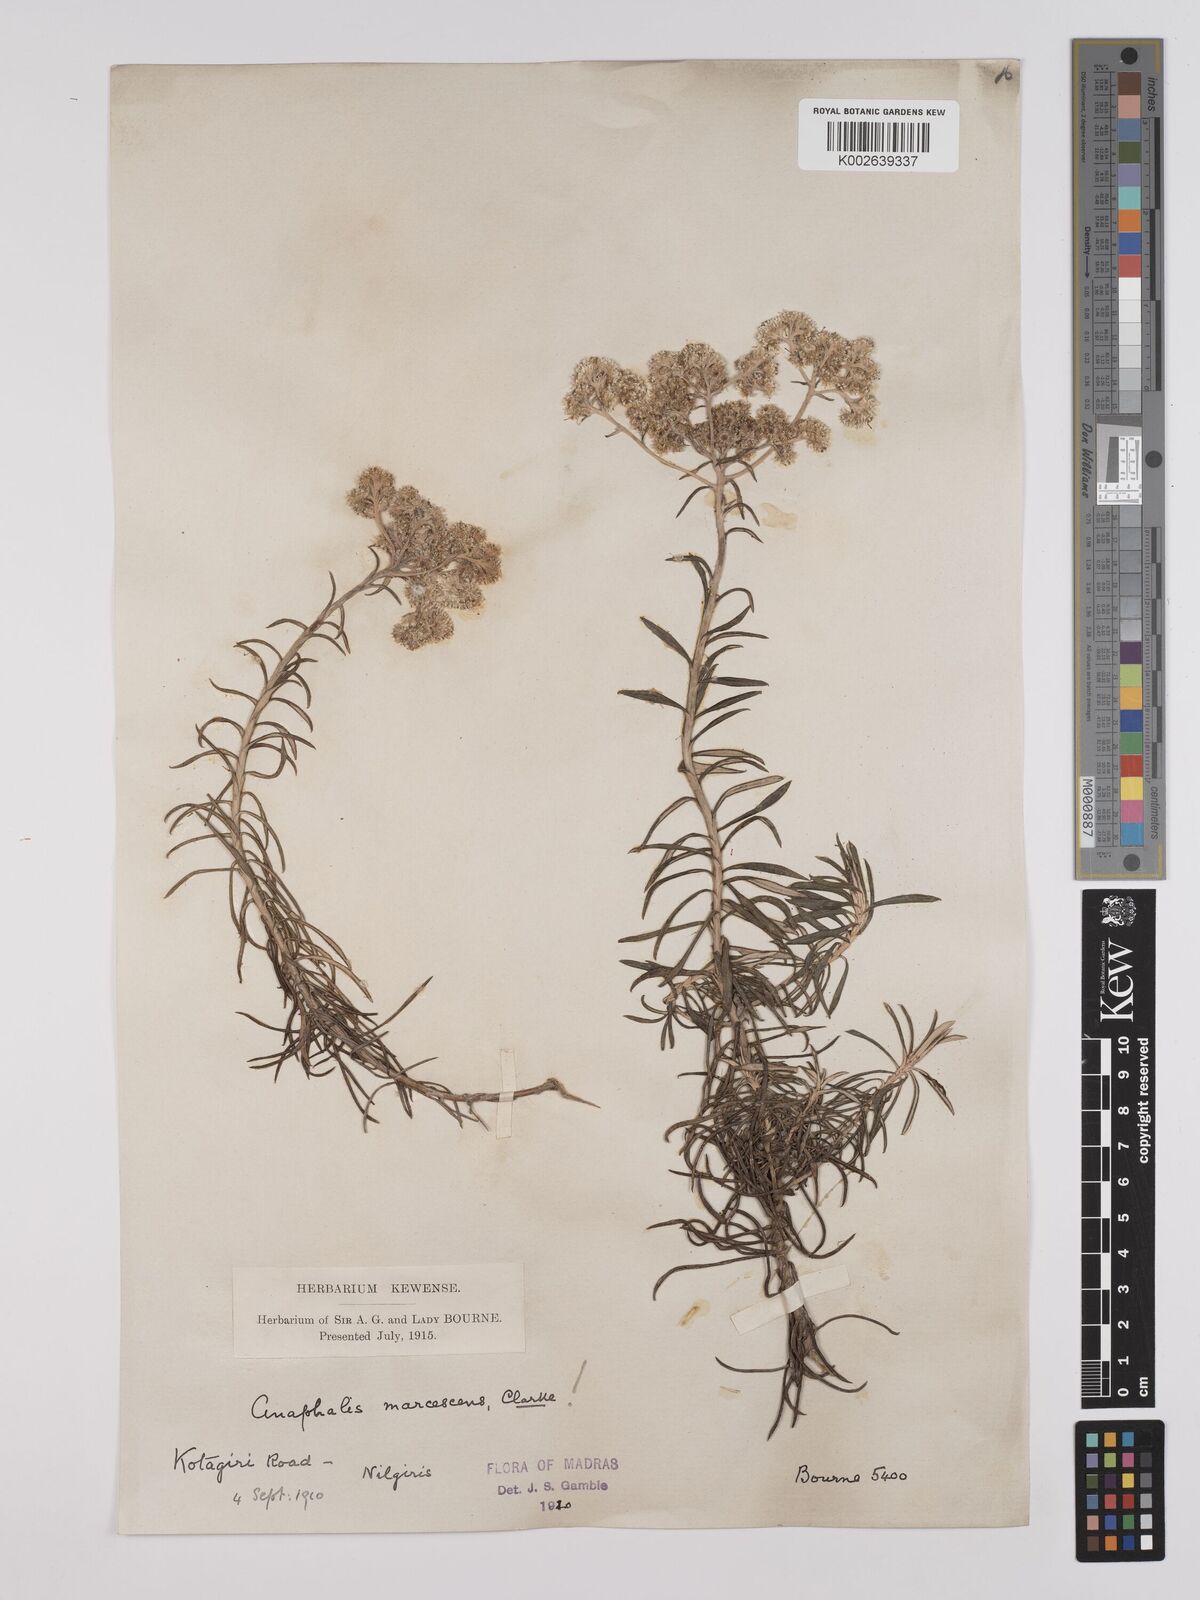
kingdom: Plantae
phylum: Tracheophyta
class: Magnoliopsida
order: Asterales
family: Asteraceae
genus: Anaphalis
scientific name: Anaphalis marcescens
